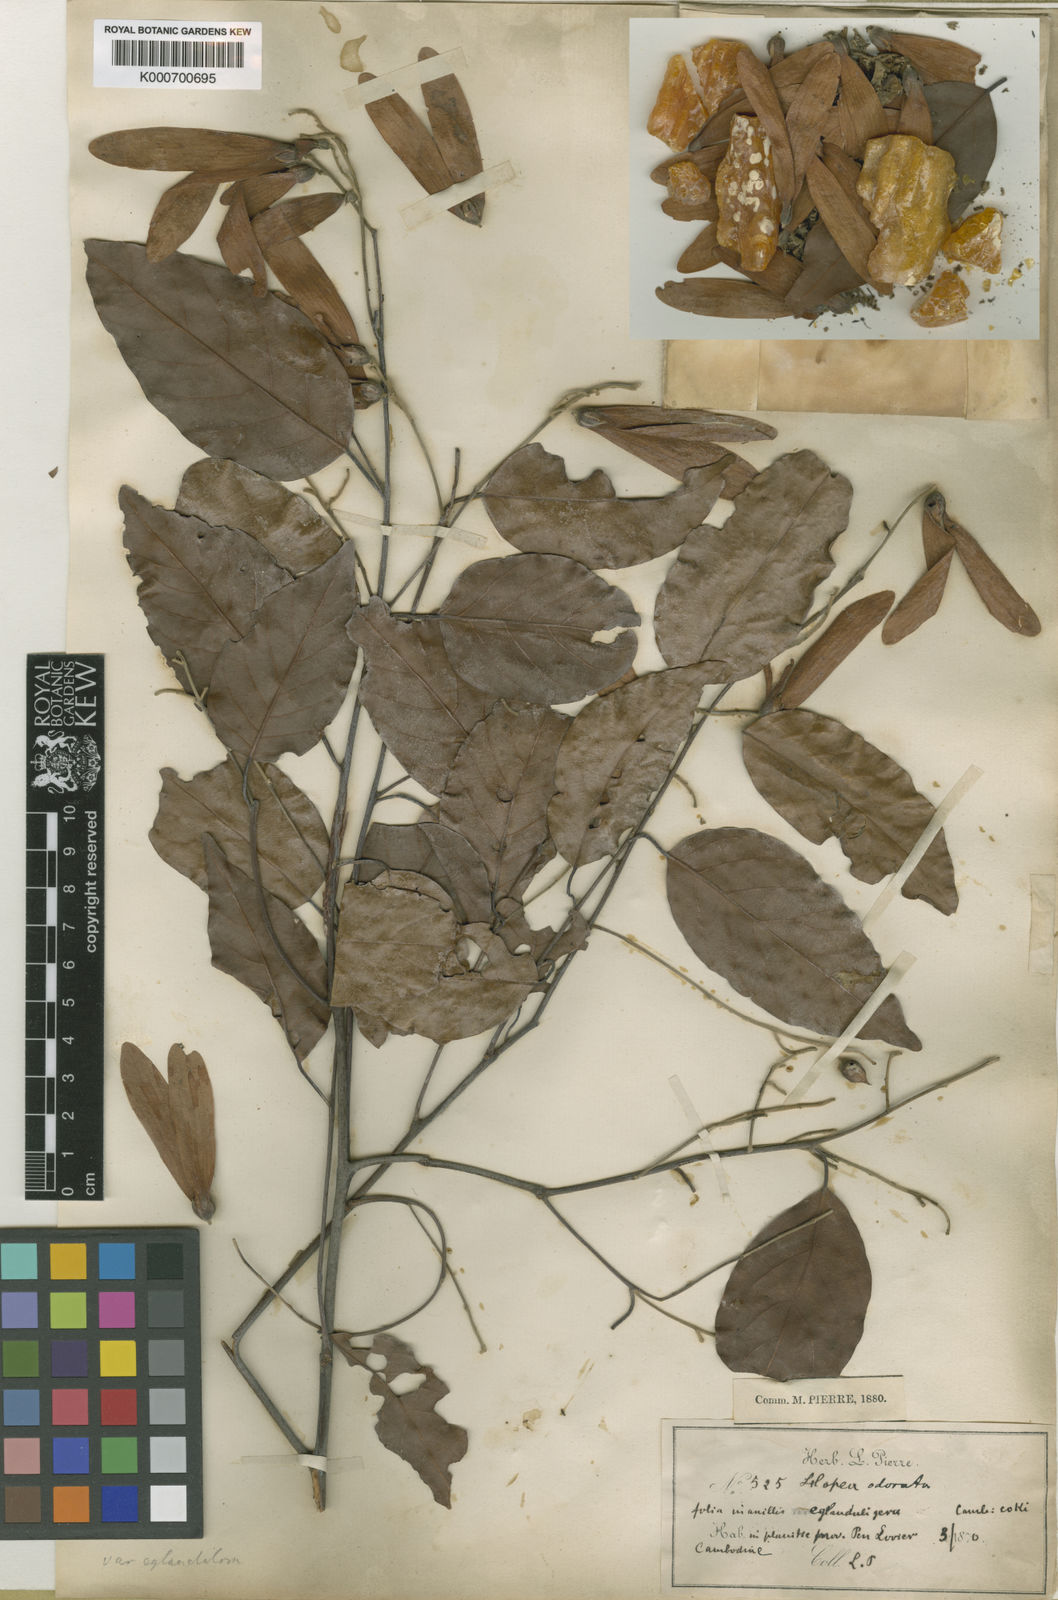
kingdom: Plantae
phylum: Tracheophyta
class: Magnoliopsida
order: Malvales
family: Dipterocarpaceae
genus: Hopea
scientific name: Hopea odorata
